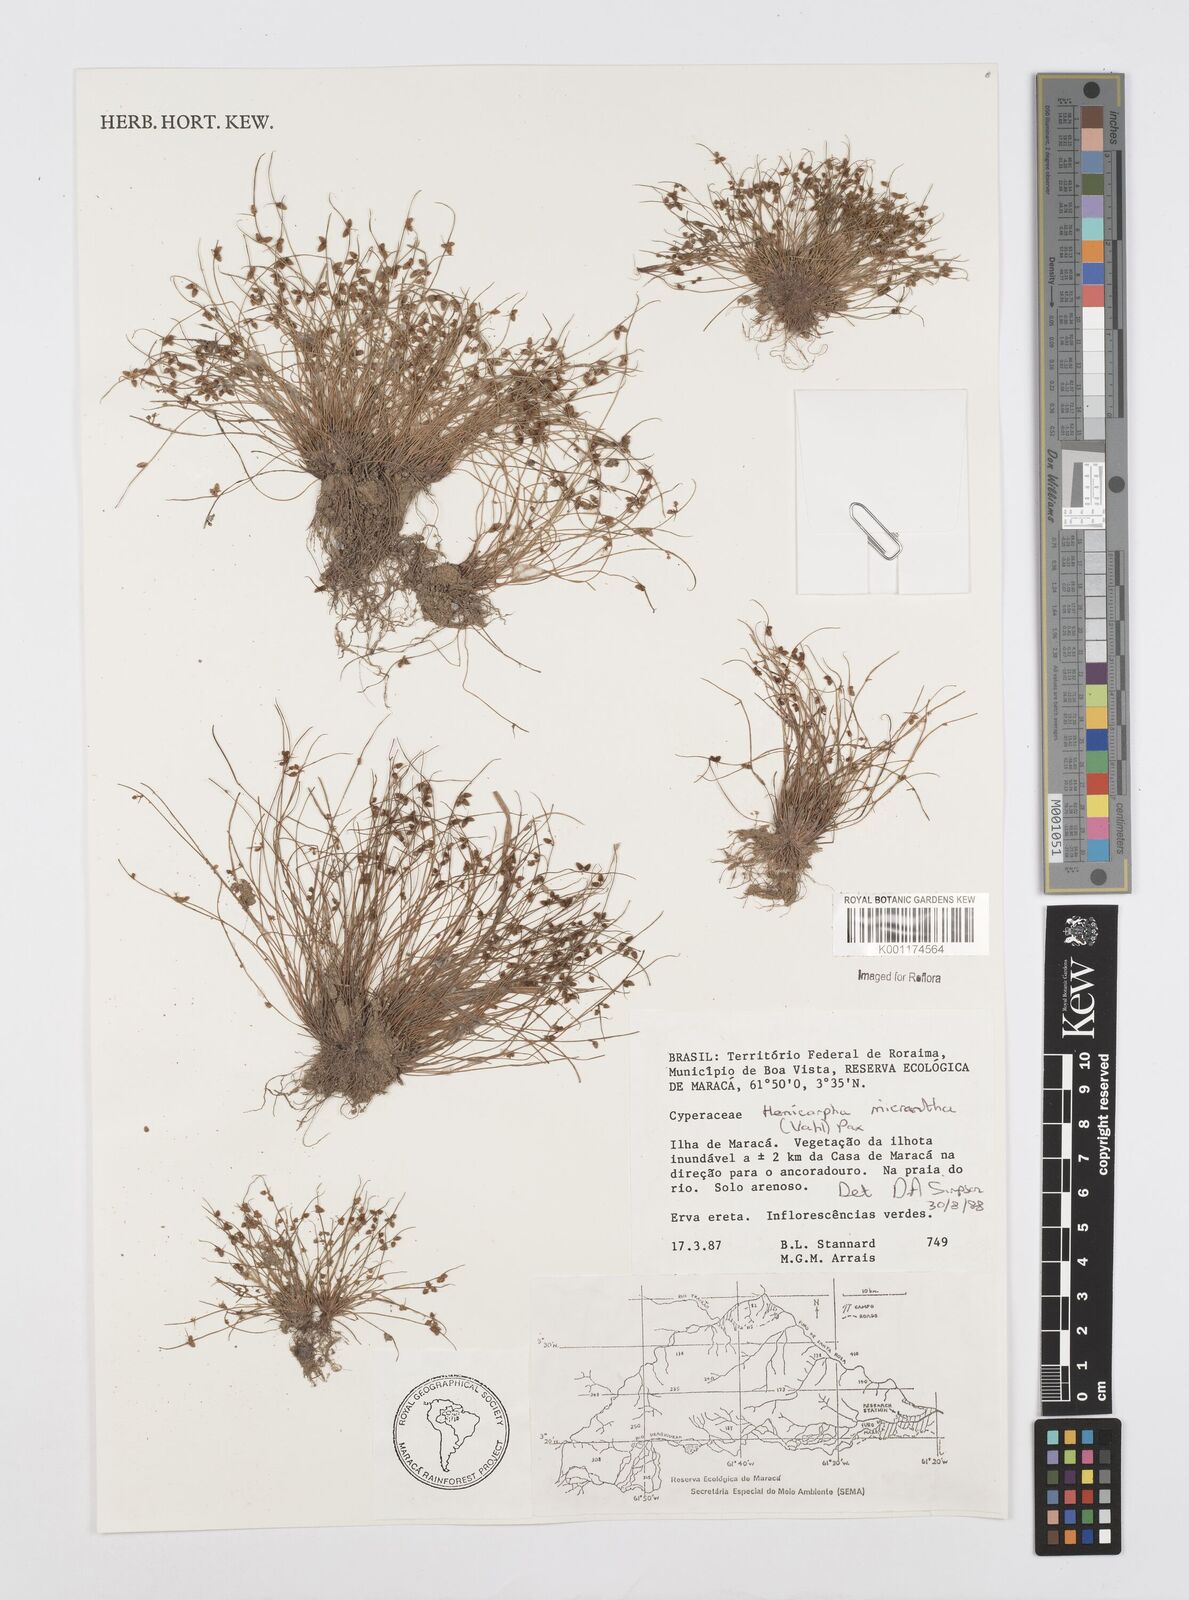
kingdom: Plantae
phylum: Tracheophyta
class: Liliopsida
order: Poales
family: Cyperaceae
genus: Cyperus
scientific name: Cyperus
